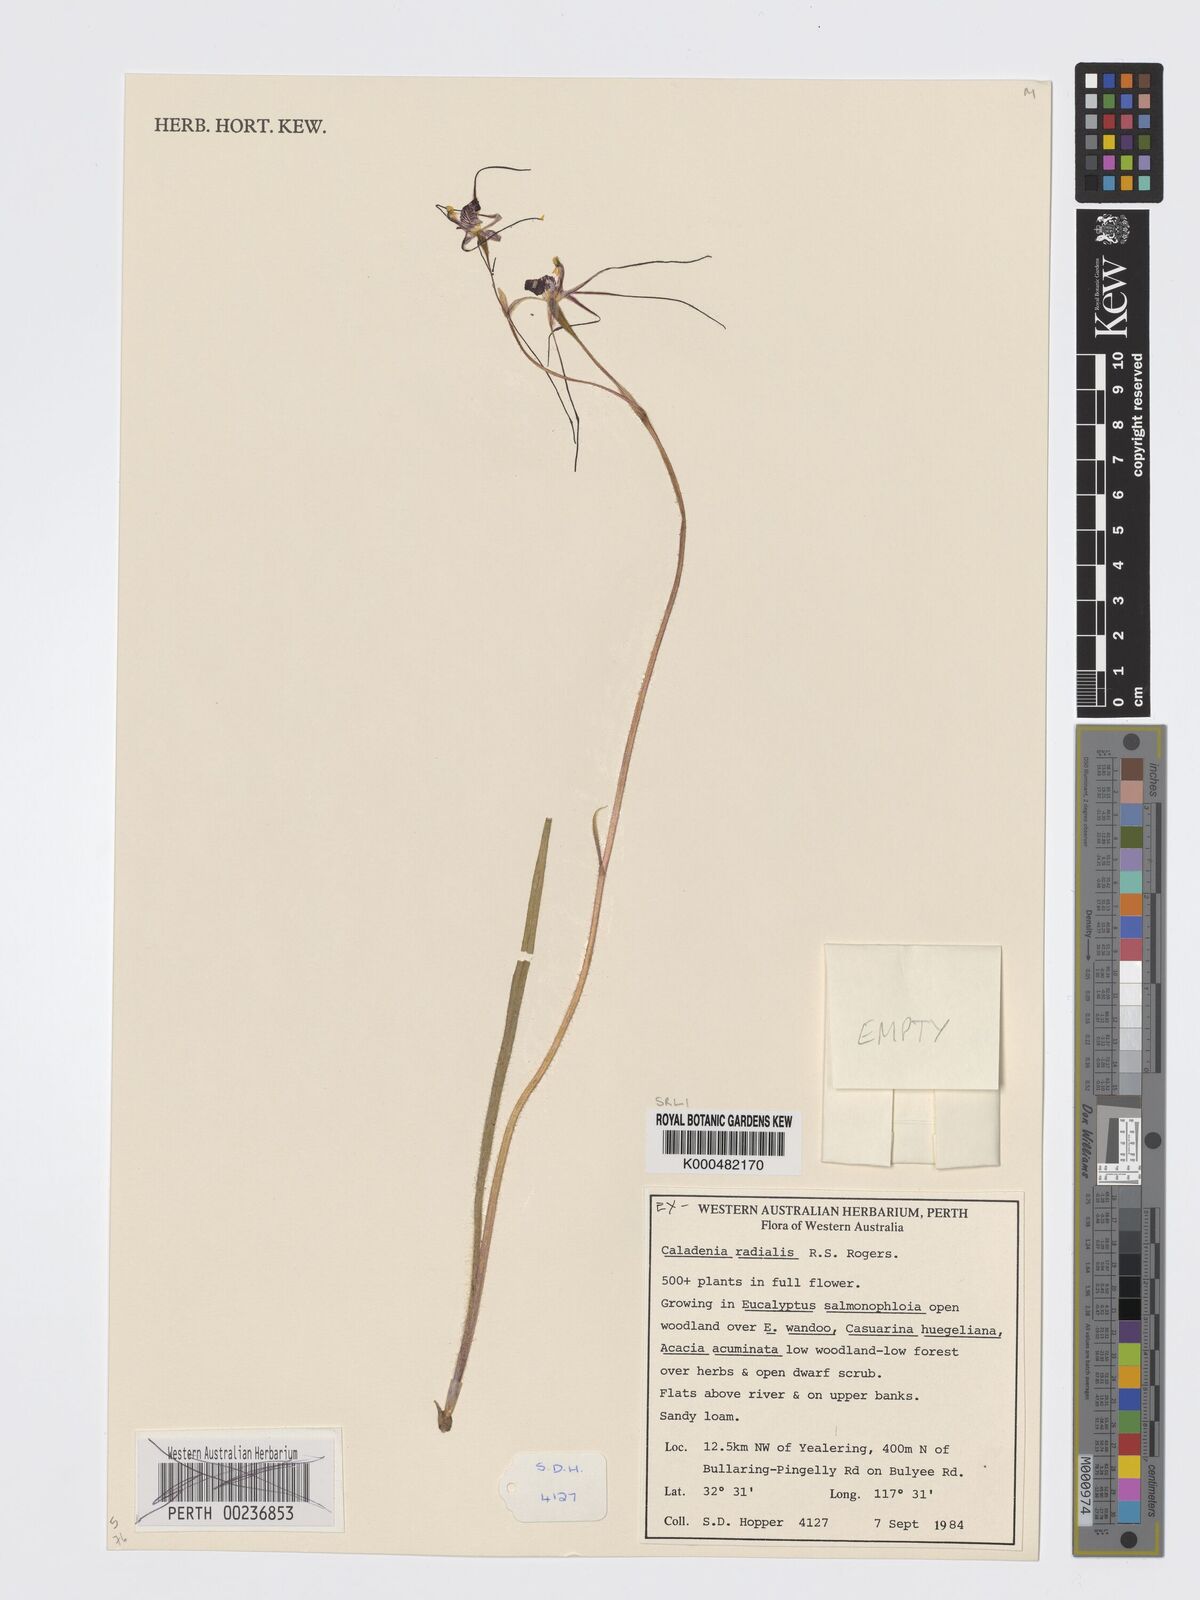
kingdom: Plantae
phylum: Tracheophyta
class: Liliopsida
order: Asparagales
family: Orchidaceae
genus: Caladenia
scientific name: Caladenia
